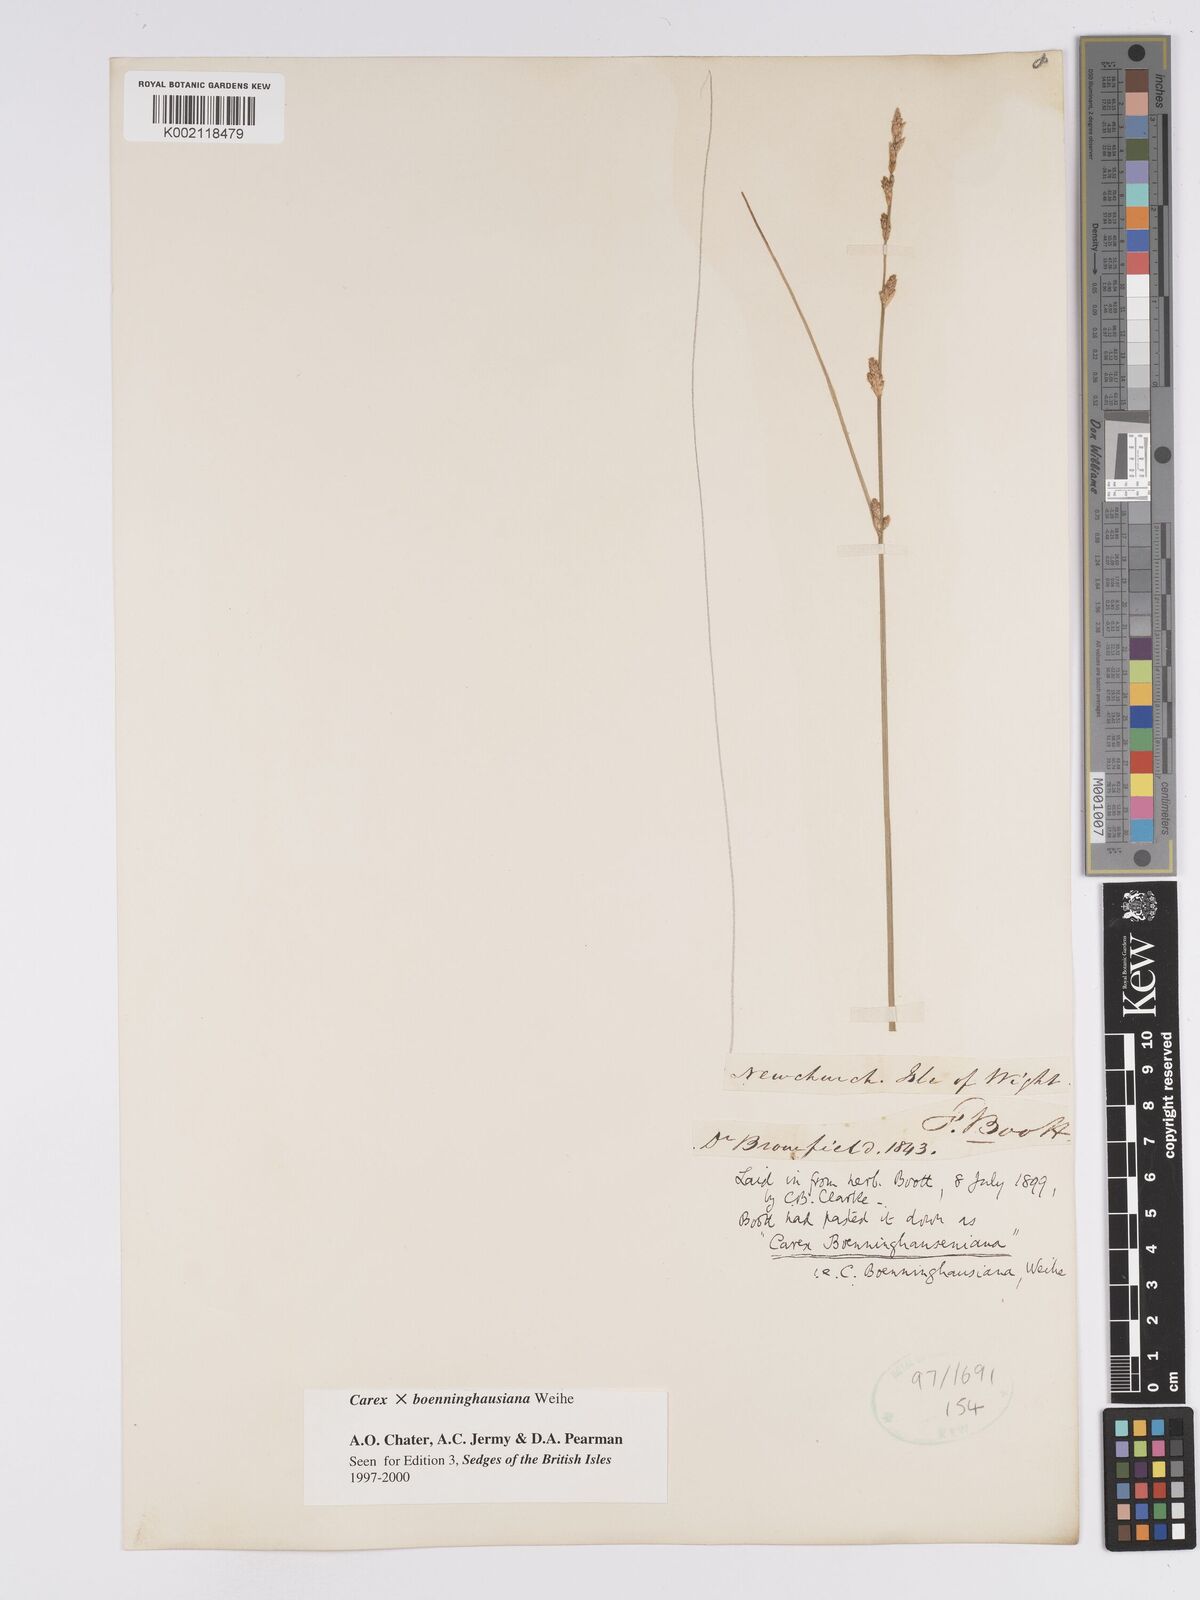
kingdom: Plantae
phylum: Tracheophyta
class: Liliopsida
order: Poales
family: Cyperaceae
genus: Carex
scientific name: Carex boenninghausiana
